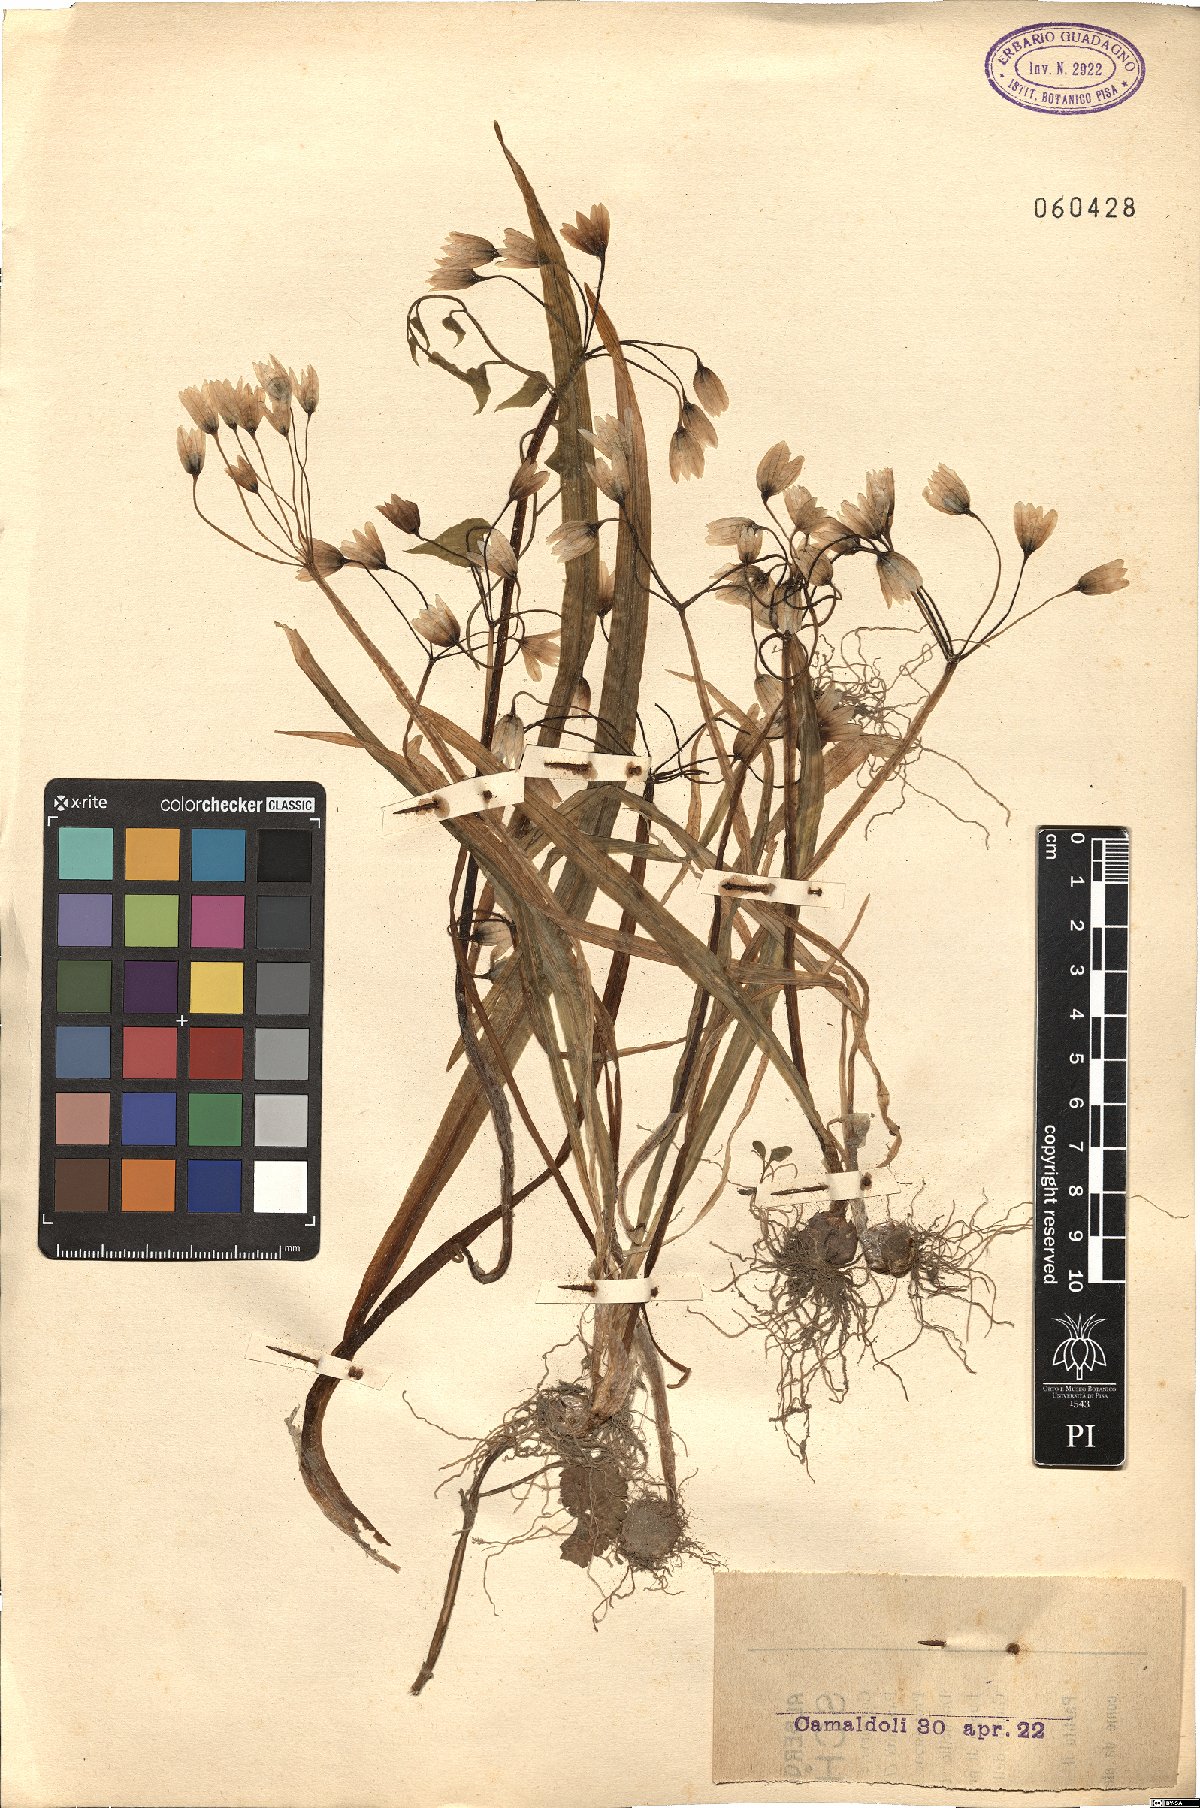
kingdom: Plantae
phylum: Tracheophyta
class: Liliopsida
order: Asparagales
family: Amaryllidaceae
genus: Nothoscordum
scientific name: Nothoscordum gracile
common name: Slender false garlic
